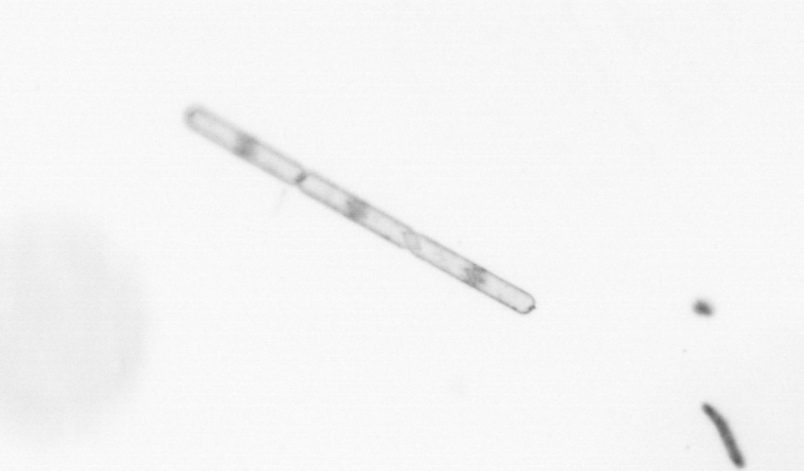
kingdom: Chromista
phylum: Ochrophyta
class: Bacillariophyceae
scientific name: Bacillariophyceae
